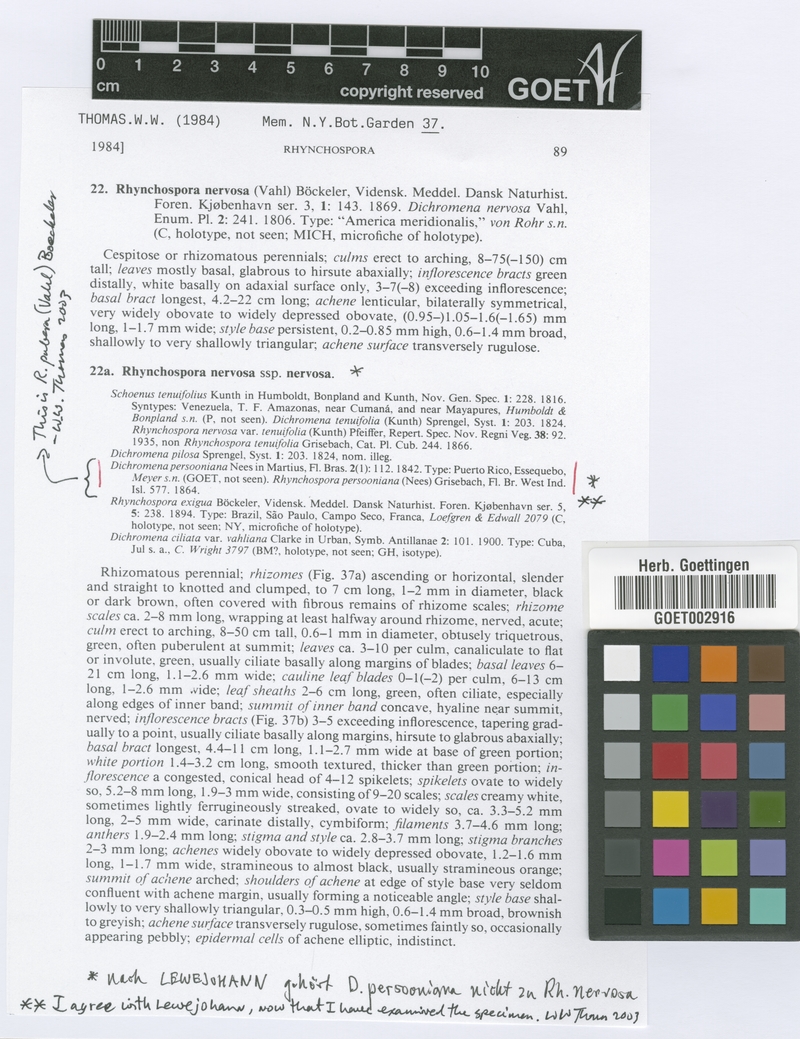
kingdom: Plantae
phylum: Tracheophyta
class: Liliopsida
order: Poales
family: Cyperaceae
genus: Rhynchospora
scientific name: Rhynchospora pubera
